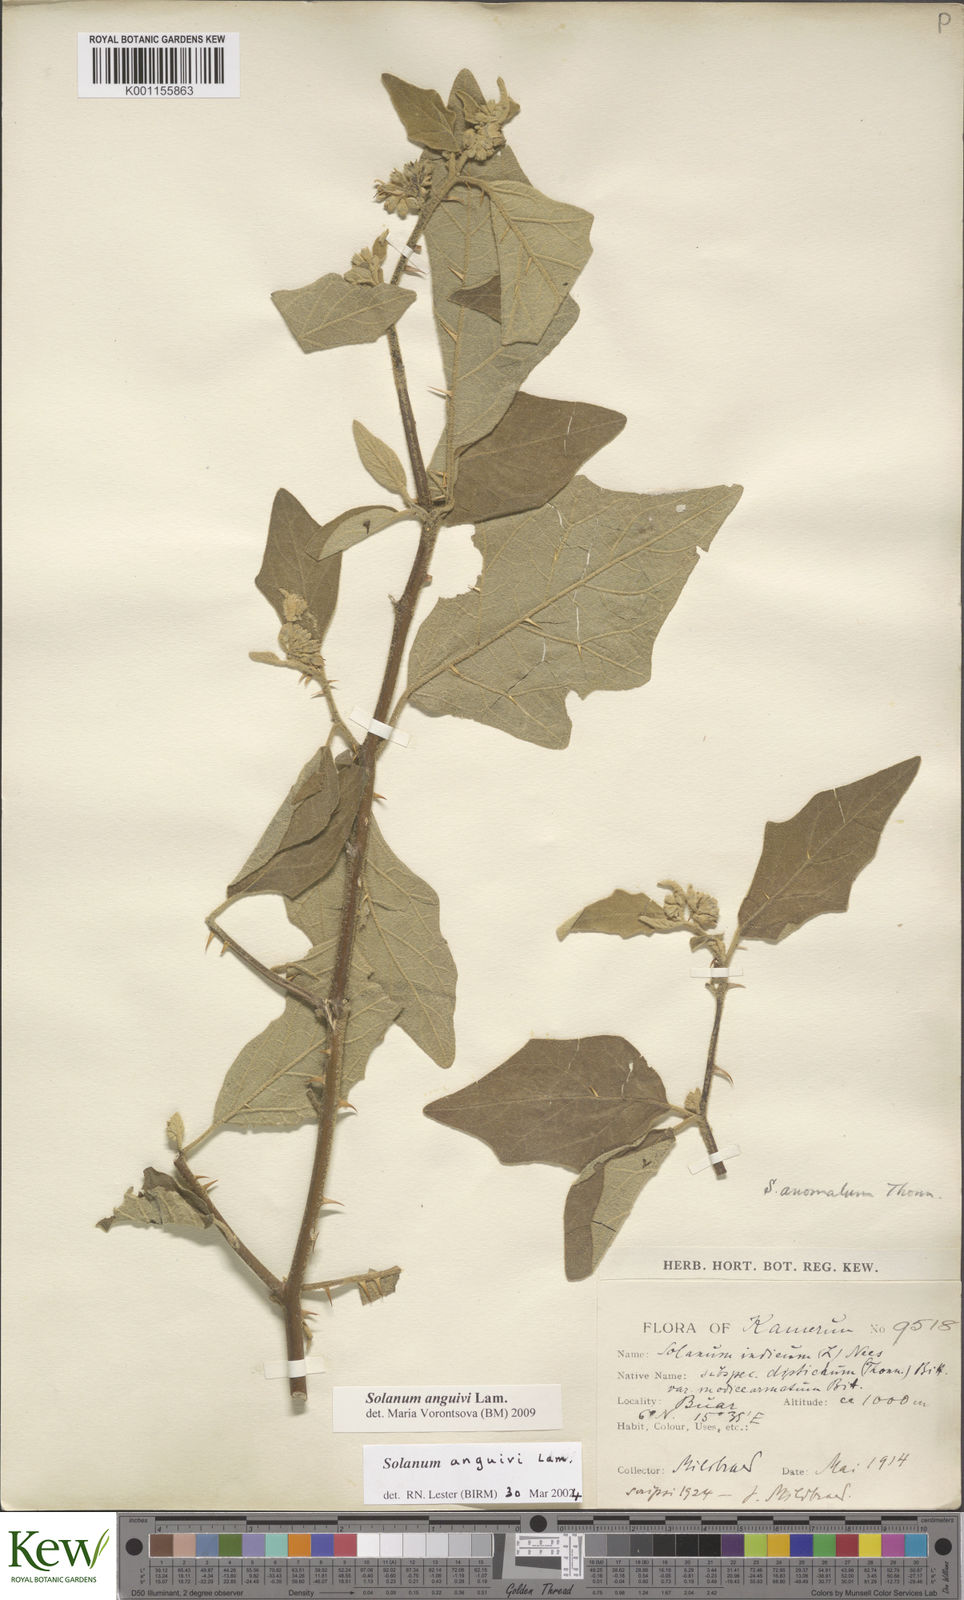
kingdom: Plantae
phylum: Tracheophyta
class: Magnoliopsida
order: Solanales
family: Solanaceae
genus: Solanum
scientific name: Solanum anguivi
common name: Forest bitterberry
